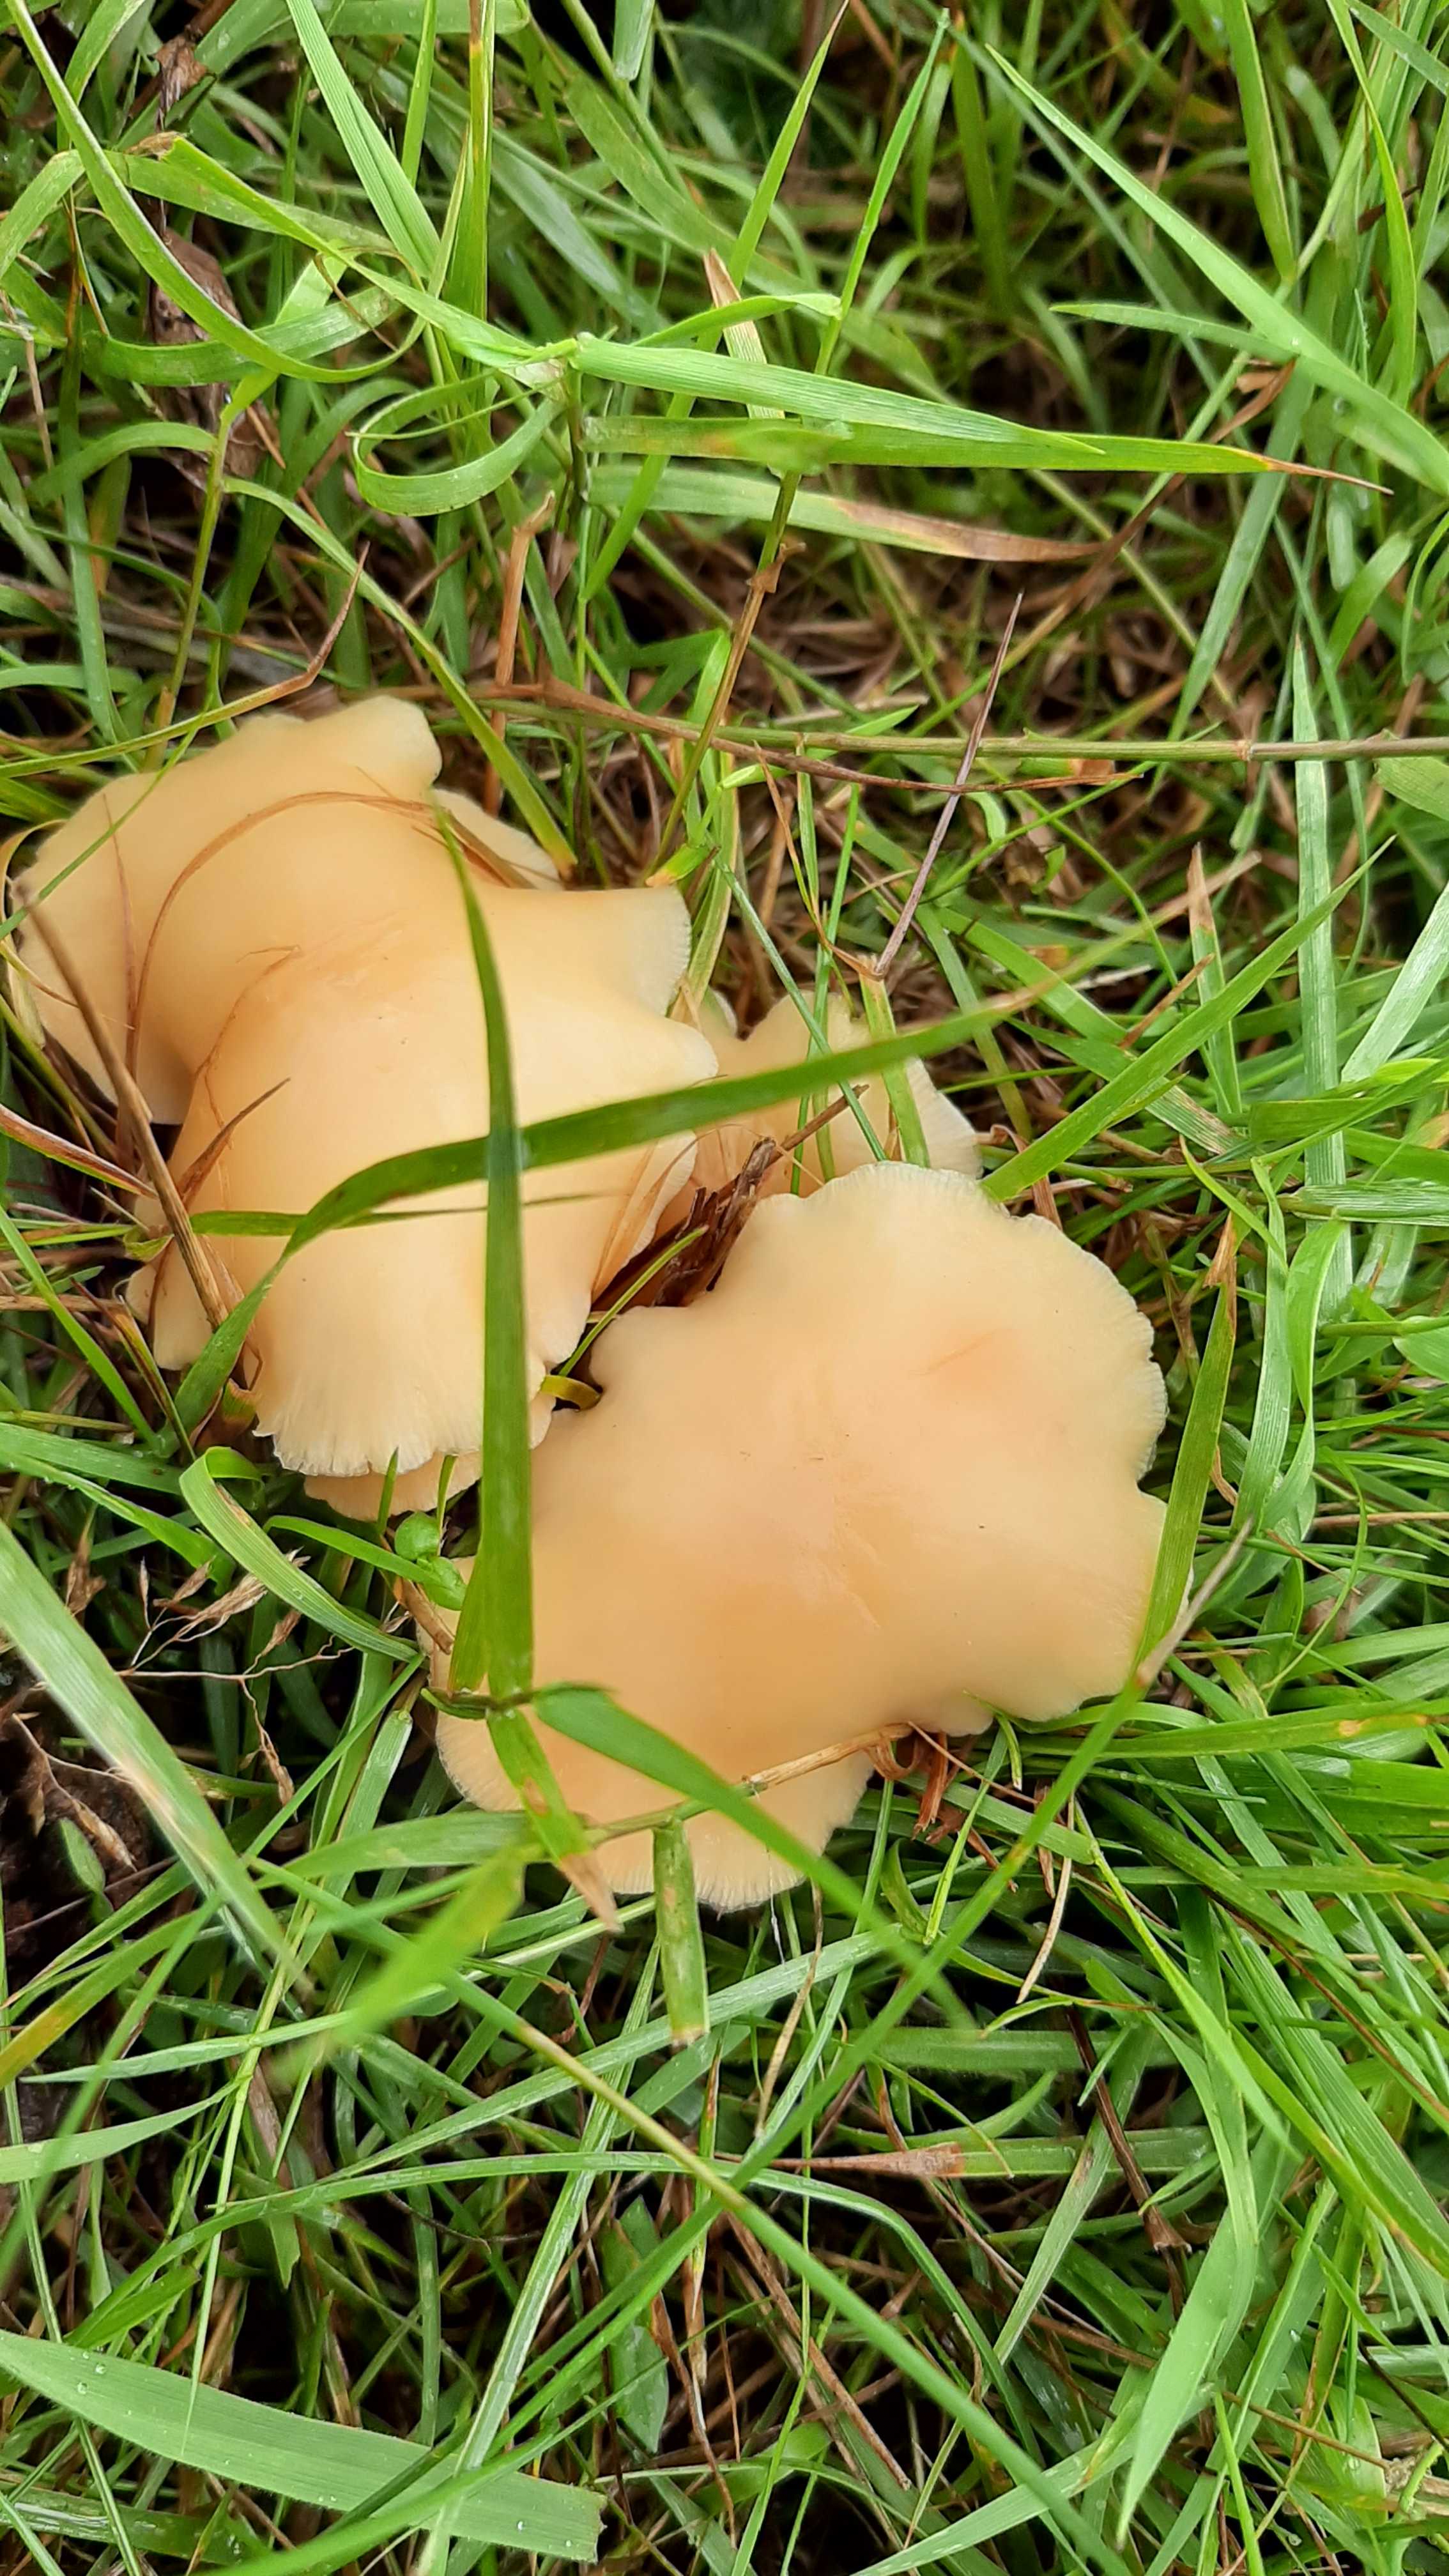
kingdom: Fungi
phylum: Basidiomycota
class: Agaricomycetes
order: Agaricales
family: Omphalotaceae
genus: Gymnopus
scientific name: Gymnopus
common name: fladhat
